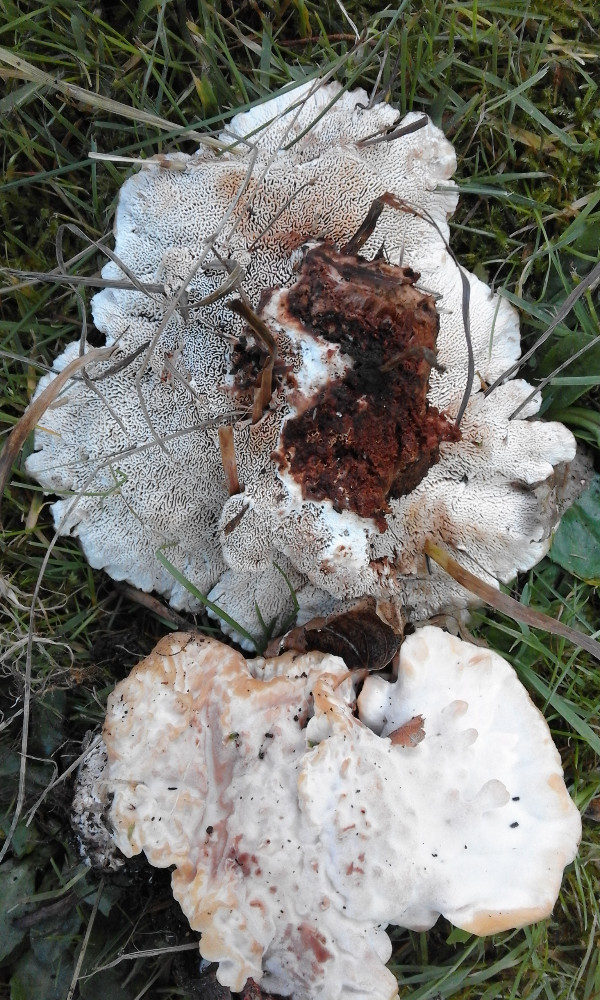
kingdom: Fungi
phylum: Basidiomycota
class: Agaricomycetes
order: Polyporales
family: Podoscyphaceae
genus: Abortiporus
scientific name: Abortiporus biennis
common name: rødmende pjalteporesvamp
